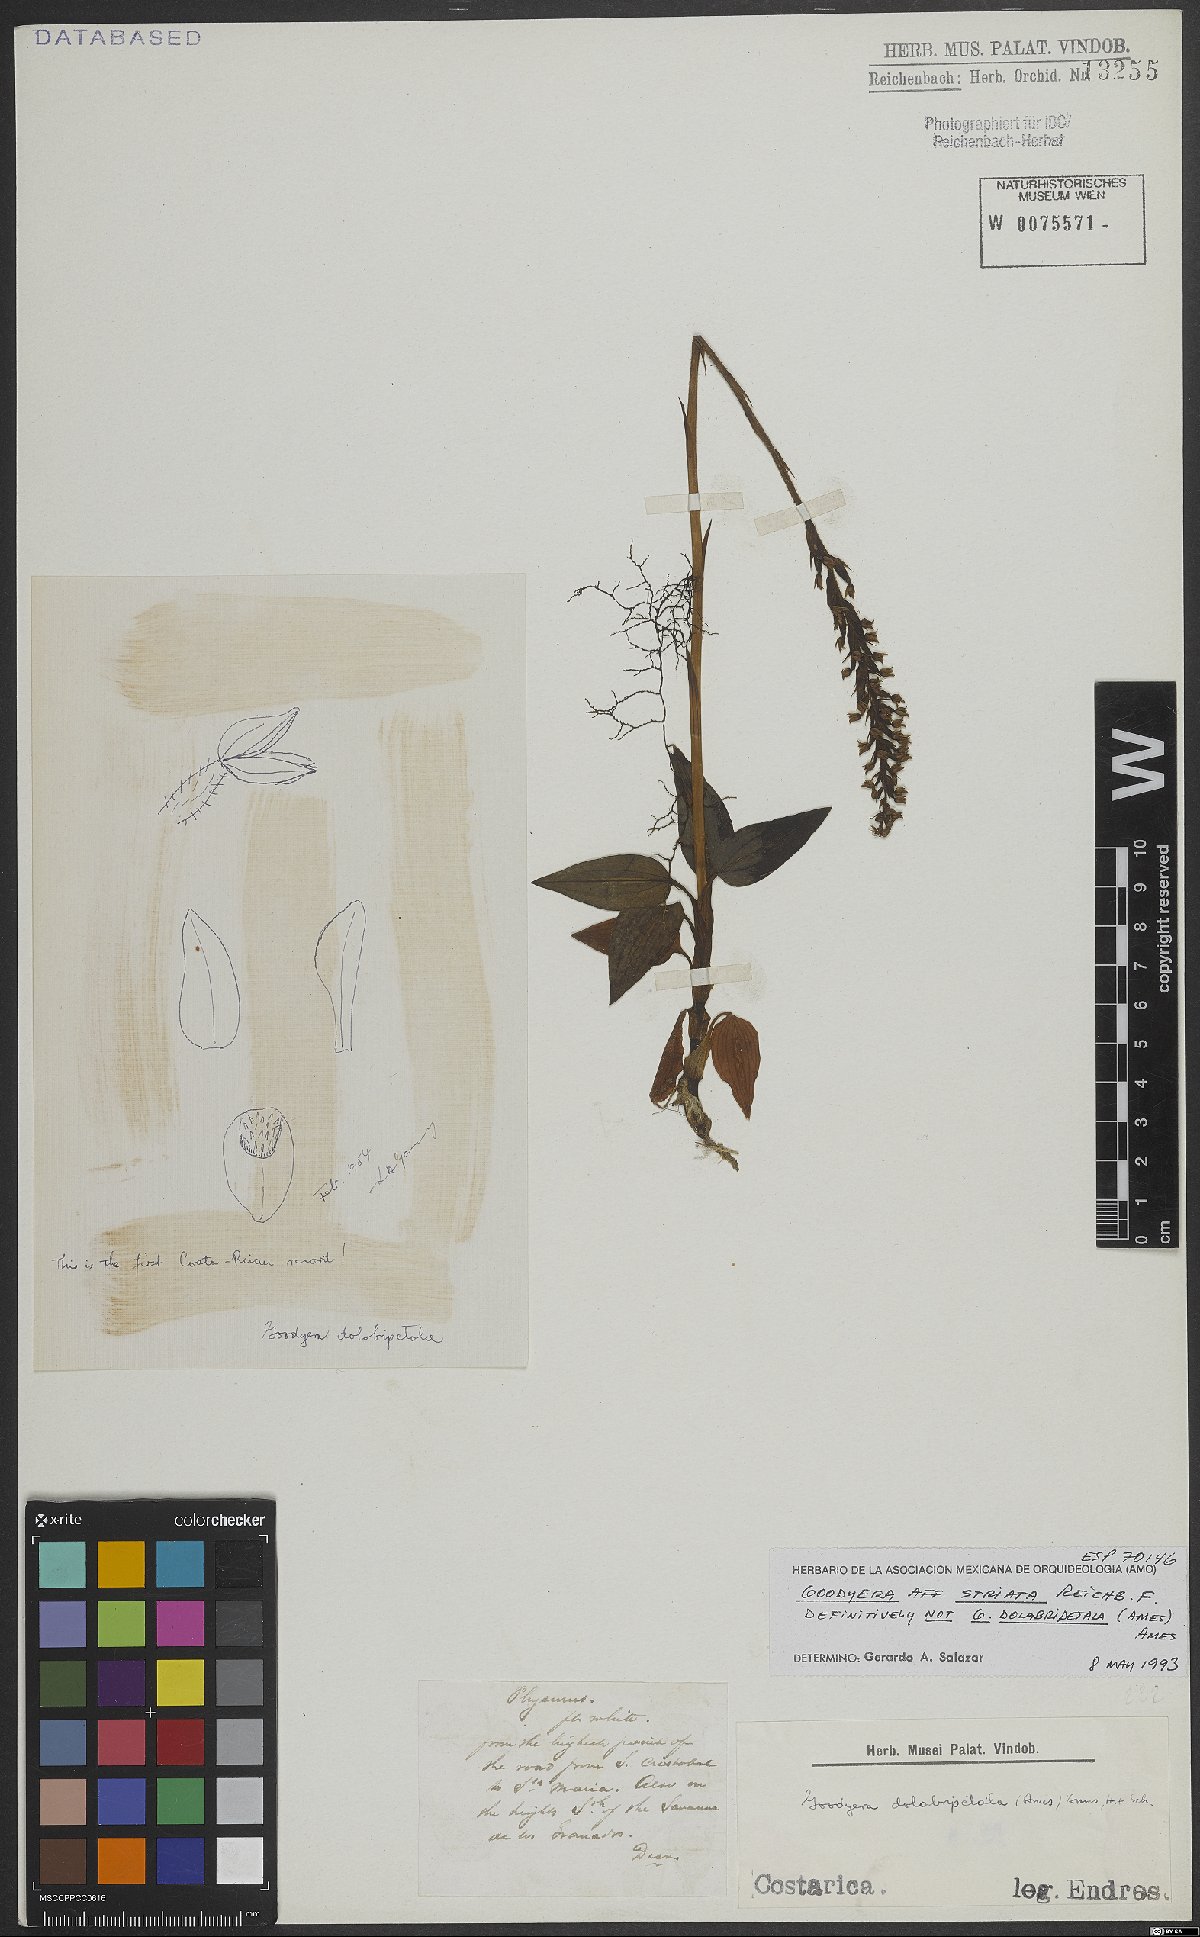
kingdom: Plantae
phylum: Tracheophyta
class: Liliopsida
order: Asparagales
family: Orchidaceae
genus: Goodyera
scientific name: Goodyera striata
